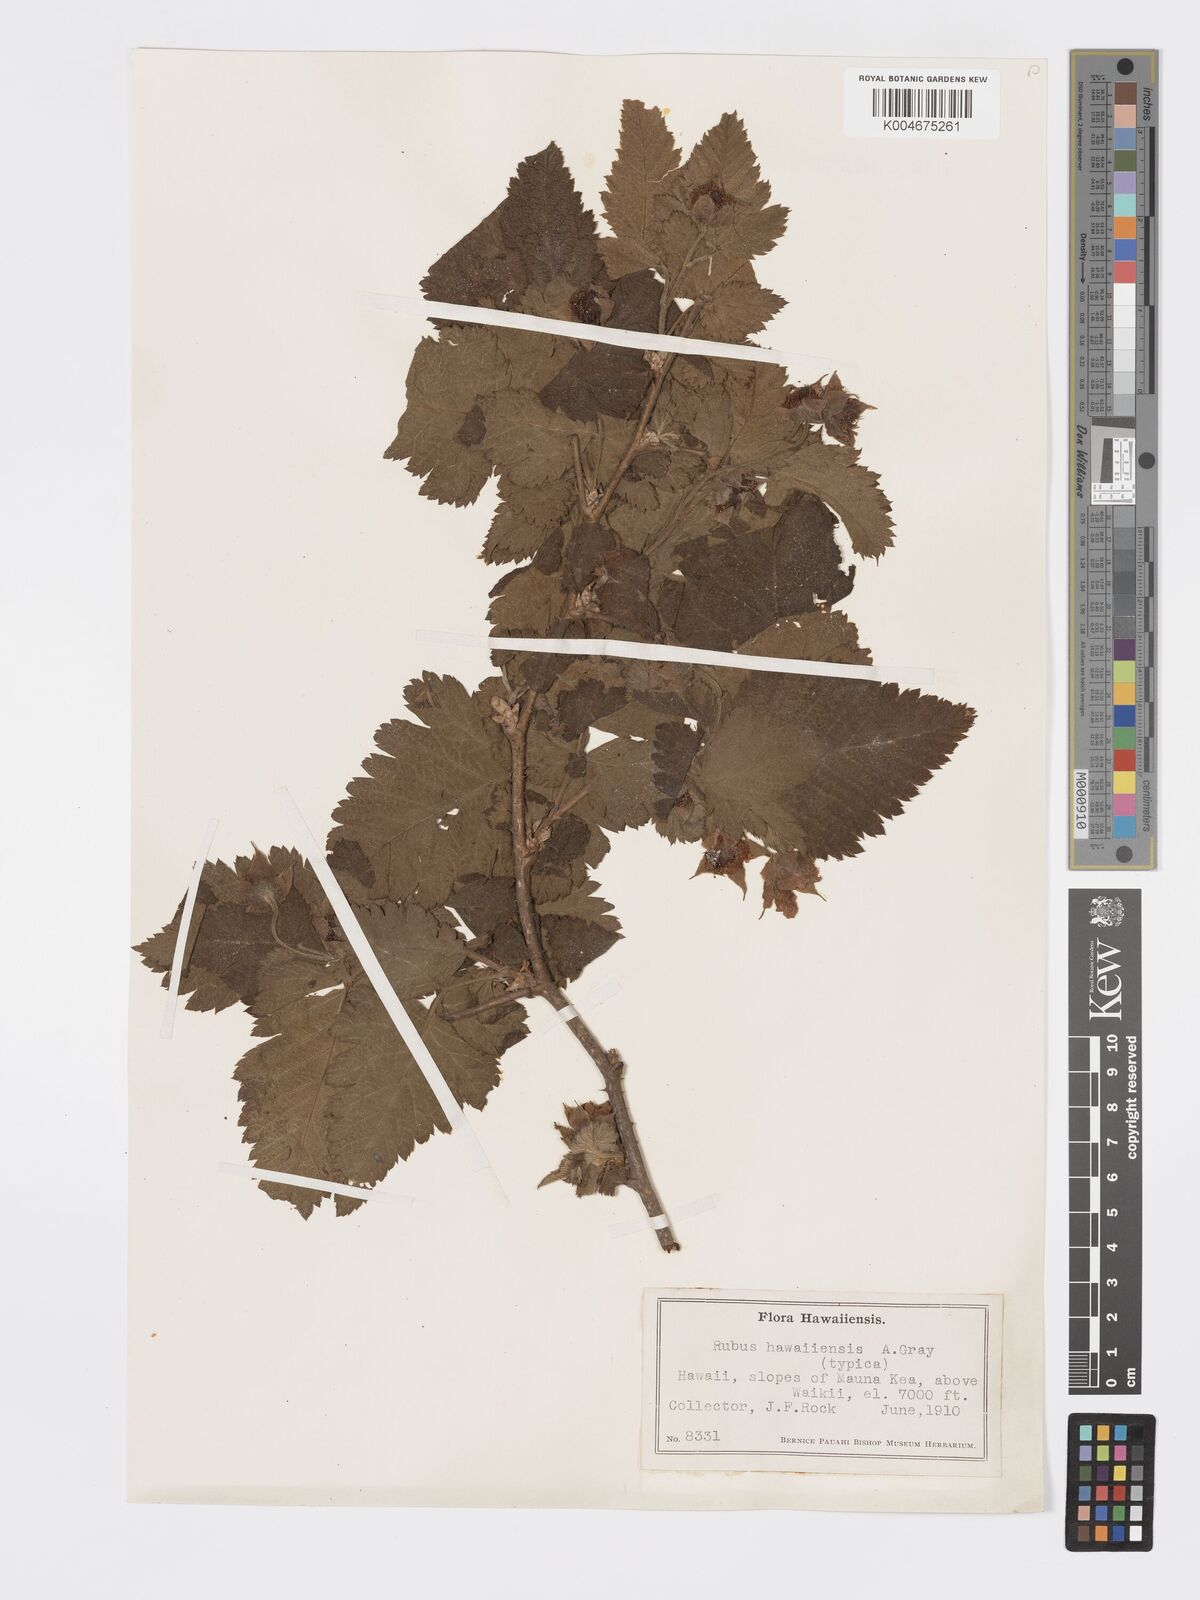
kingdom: Plantae
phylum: Tracheophyta
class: Magnoliopsida
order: Rosales
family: Rosaceae
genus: Rubus
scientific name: Rubus hawaiensis
